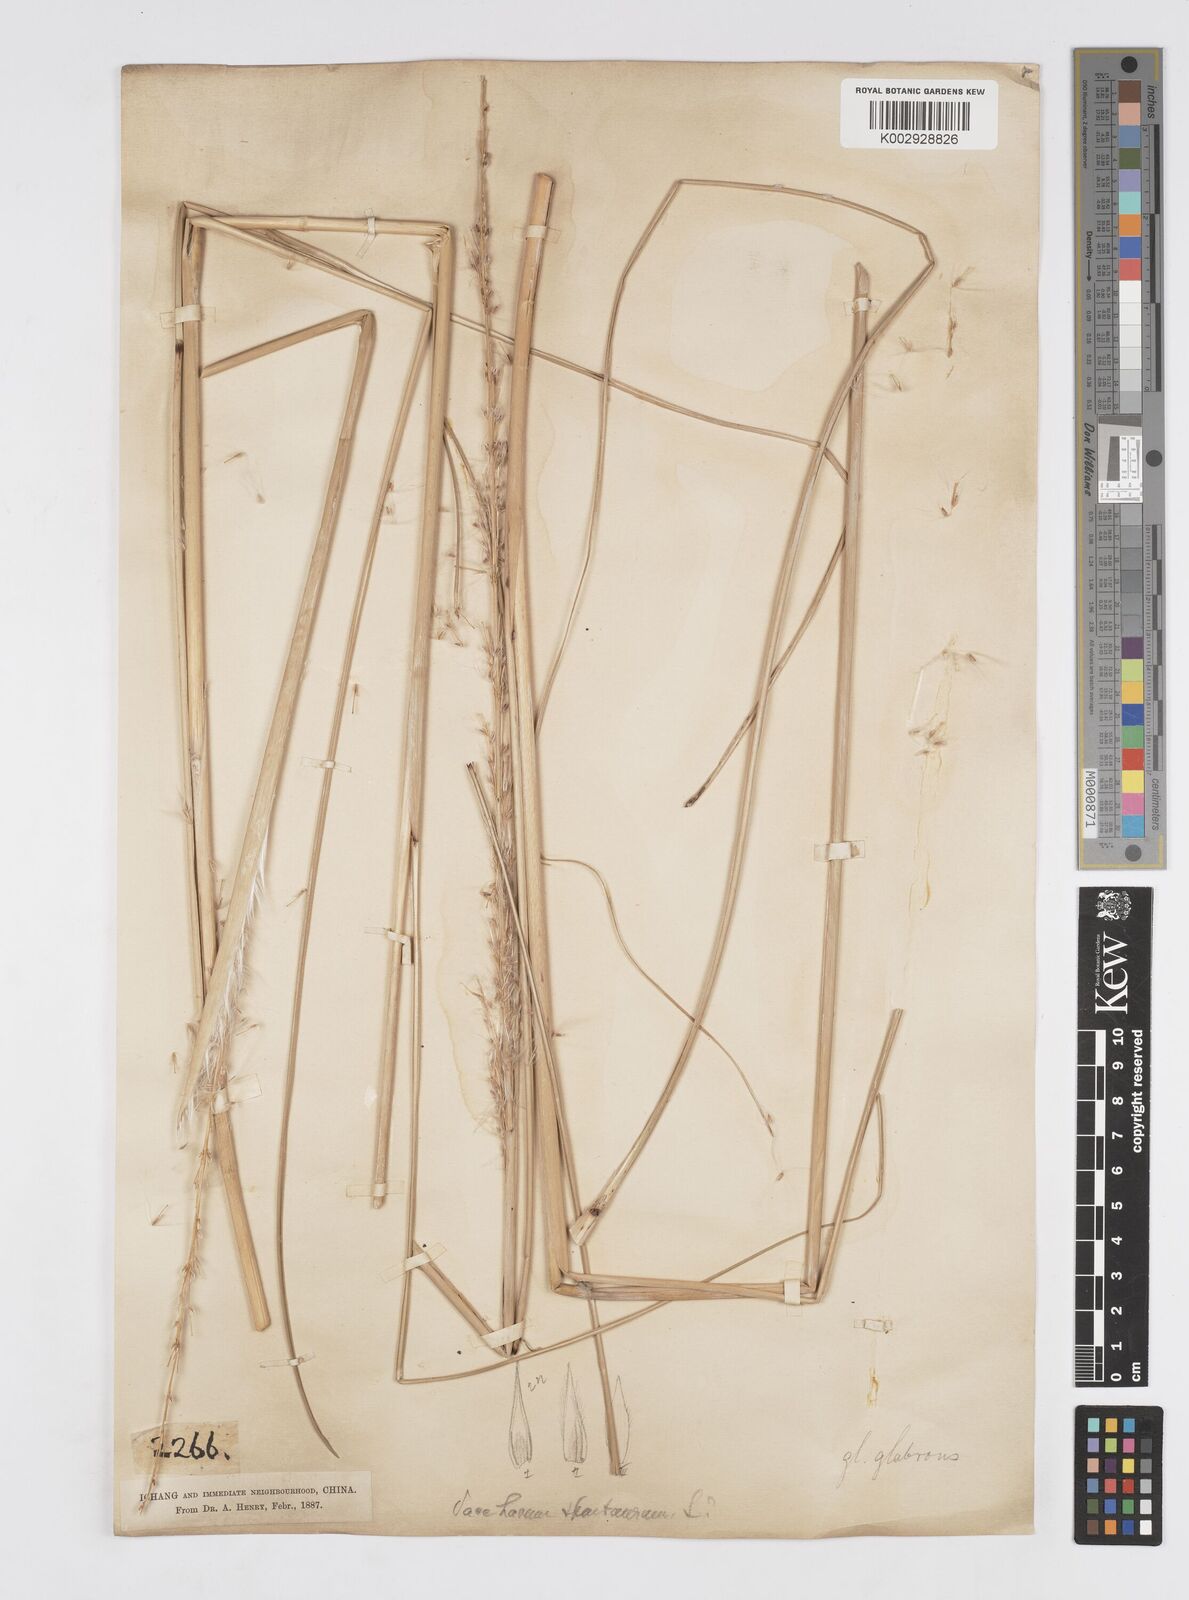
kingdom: Plantae
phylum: Tracheophyta
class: Liliopsida
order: Poales
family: Poaceae
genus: Saccharum
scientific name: Saccharum spontaneum
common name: Wild sugarcane
